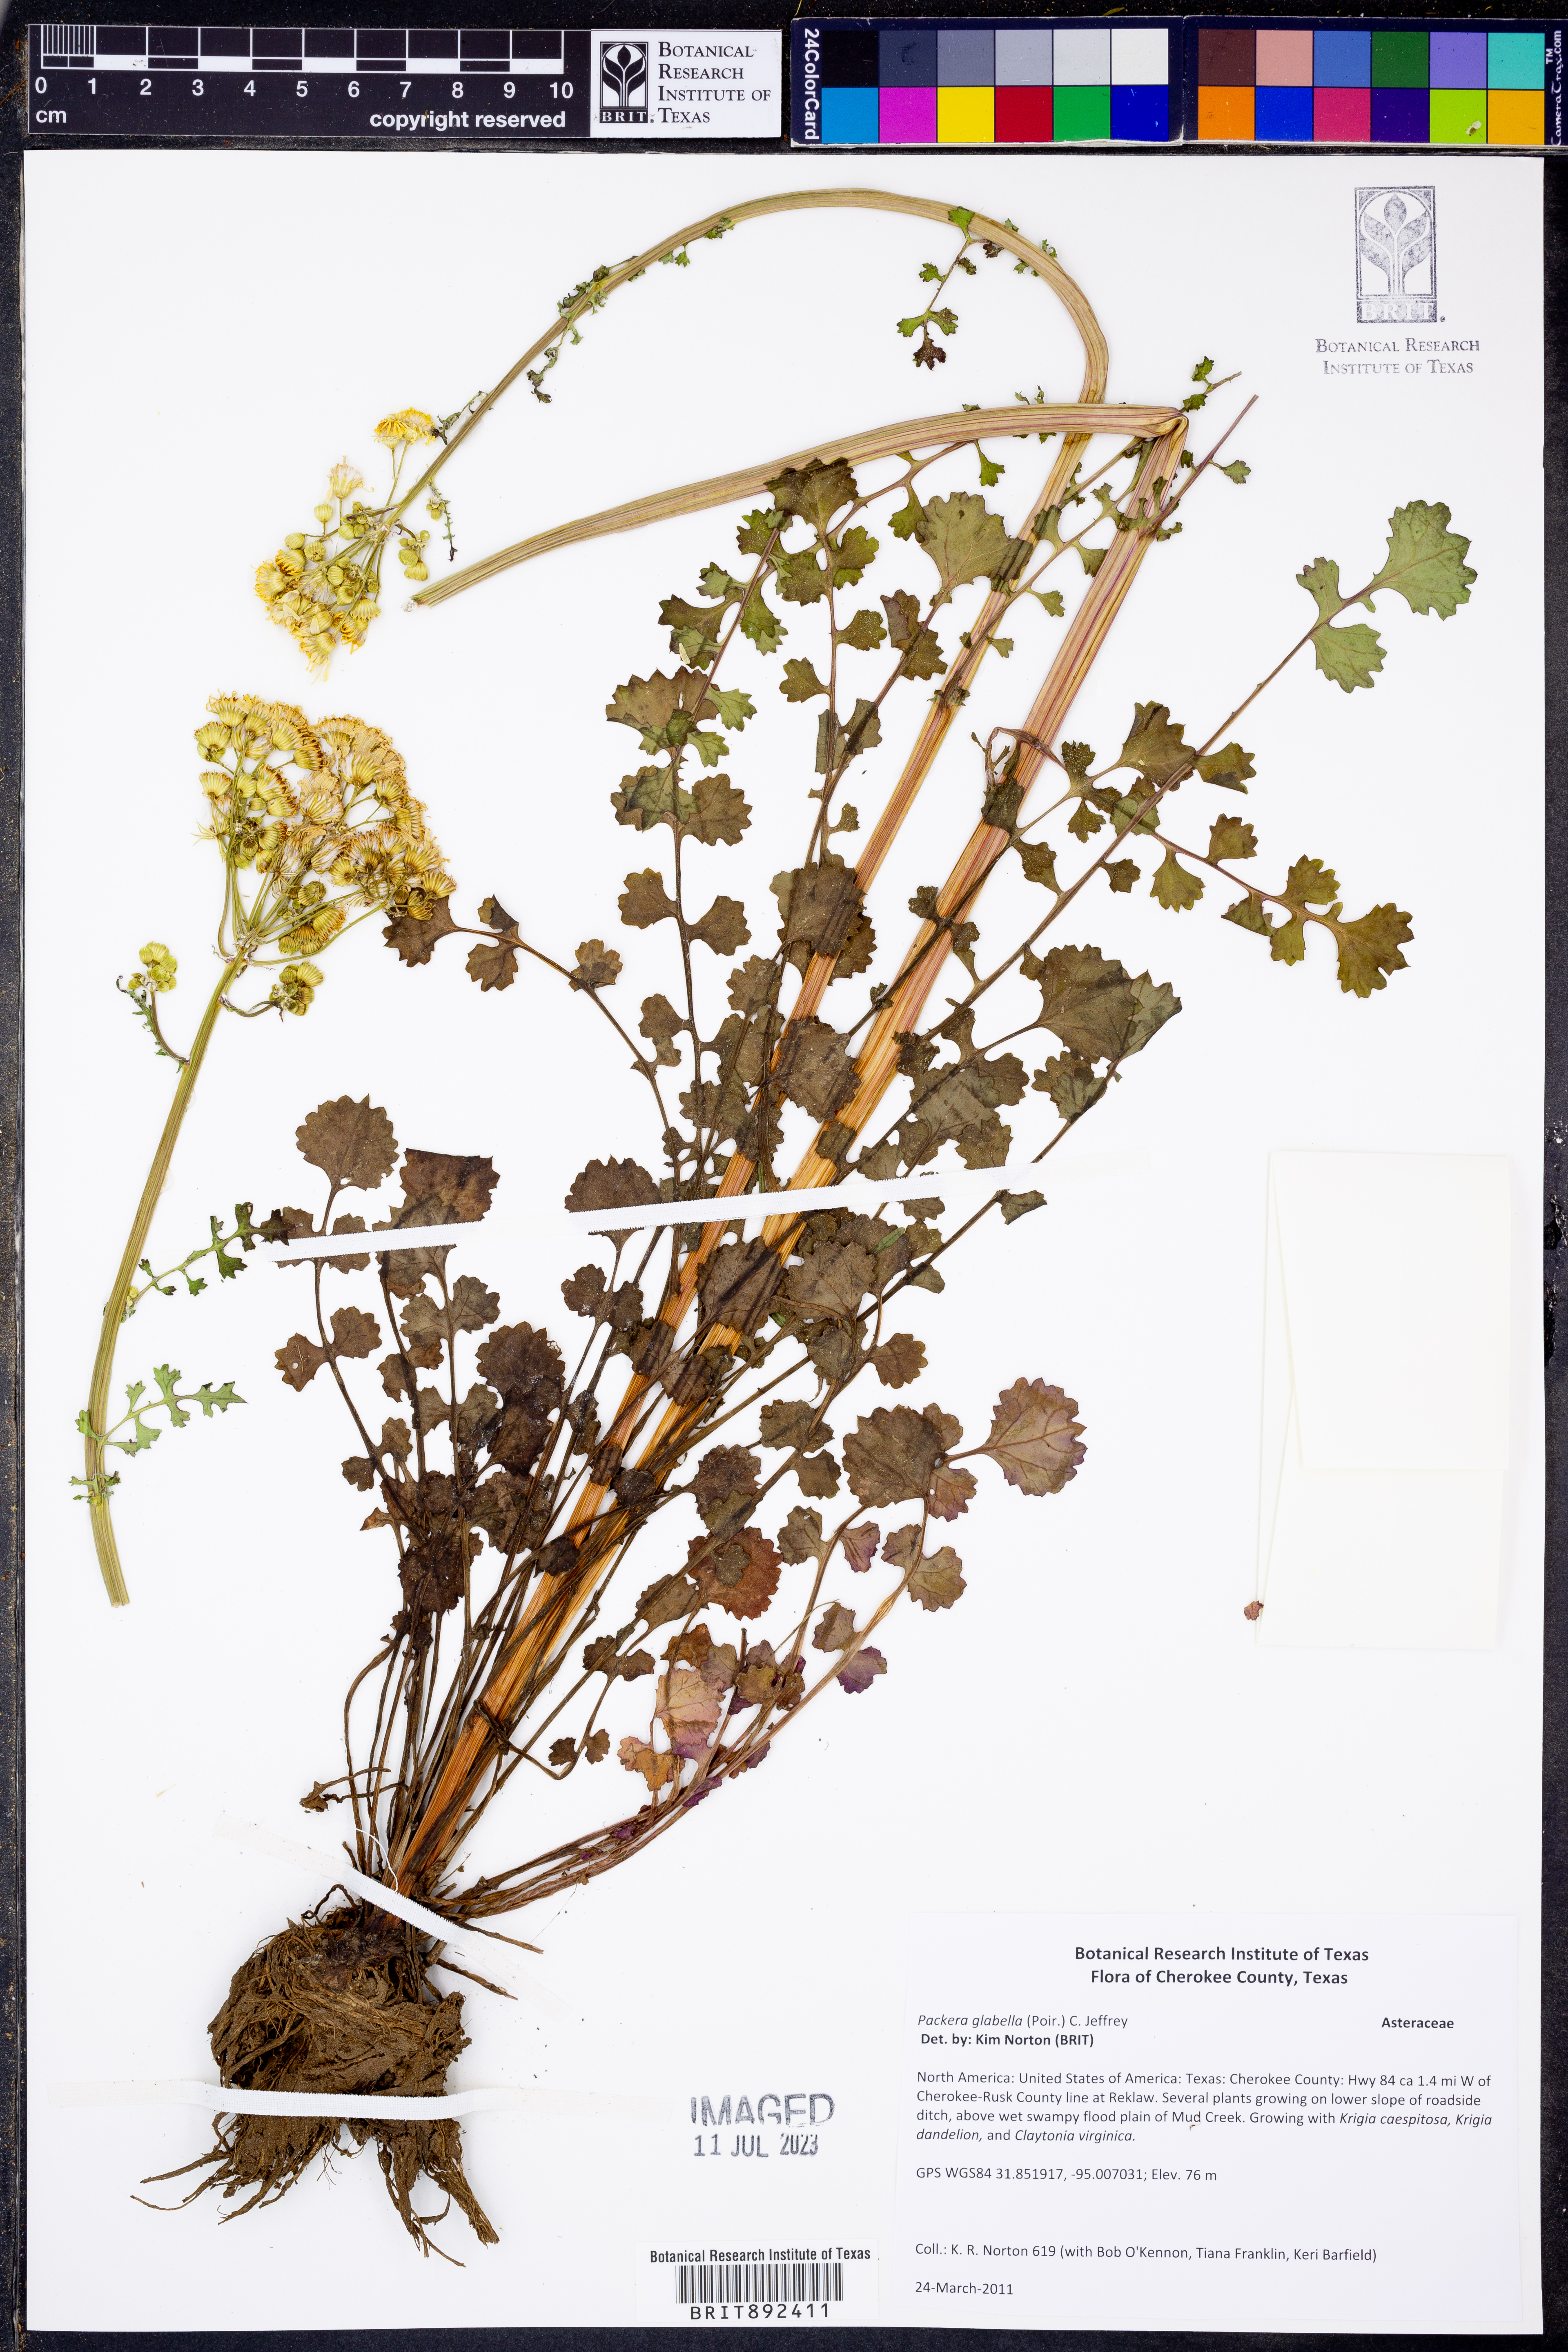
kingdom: Plantae
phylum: Tracheophyta
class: Magnoliopsida
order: Asterales
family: Asteraceae
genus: Packera
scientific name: Packera glabella
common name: Butterweed
